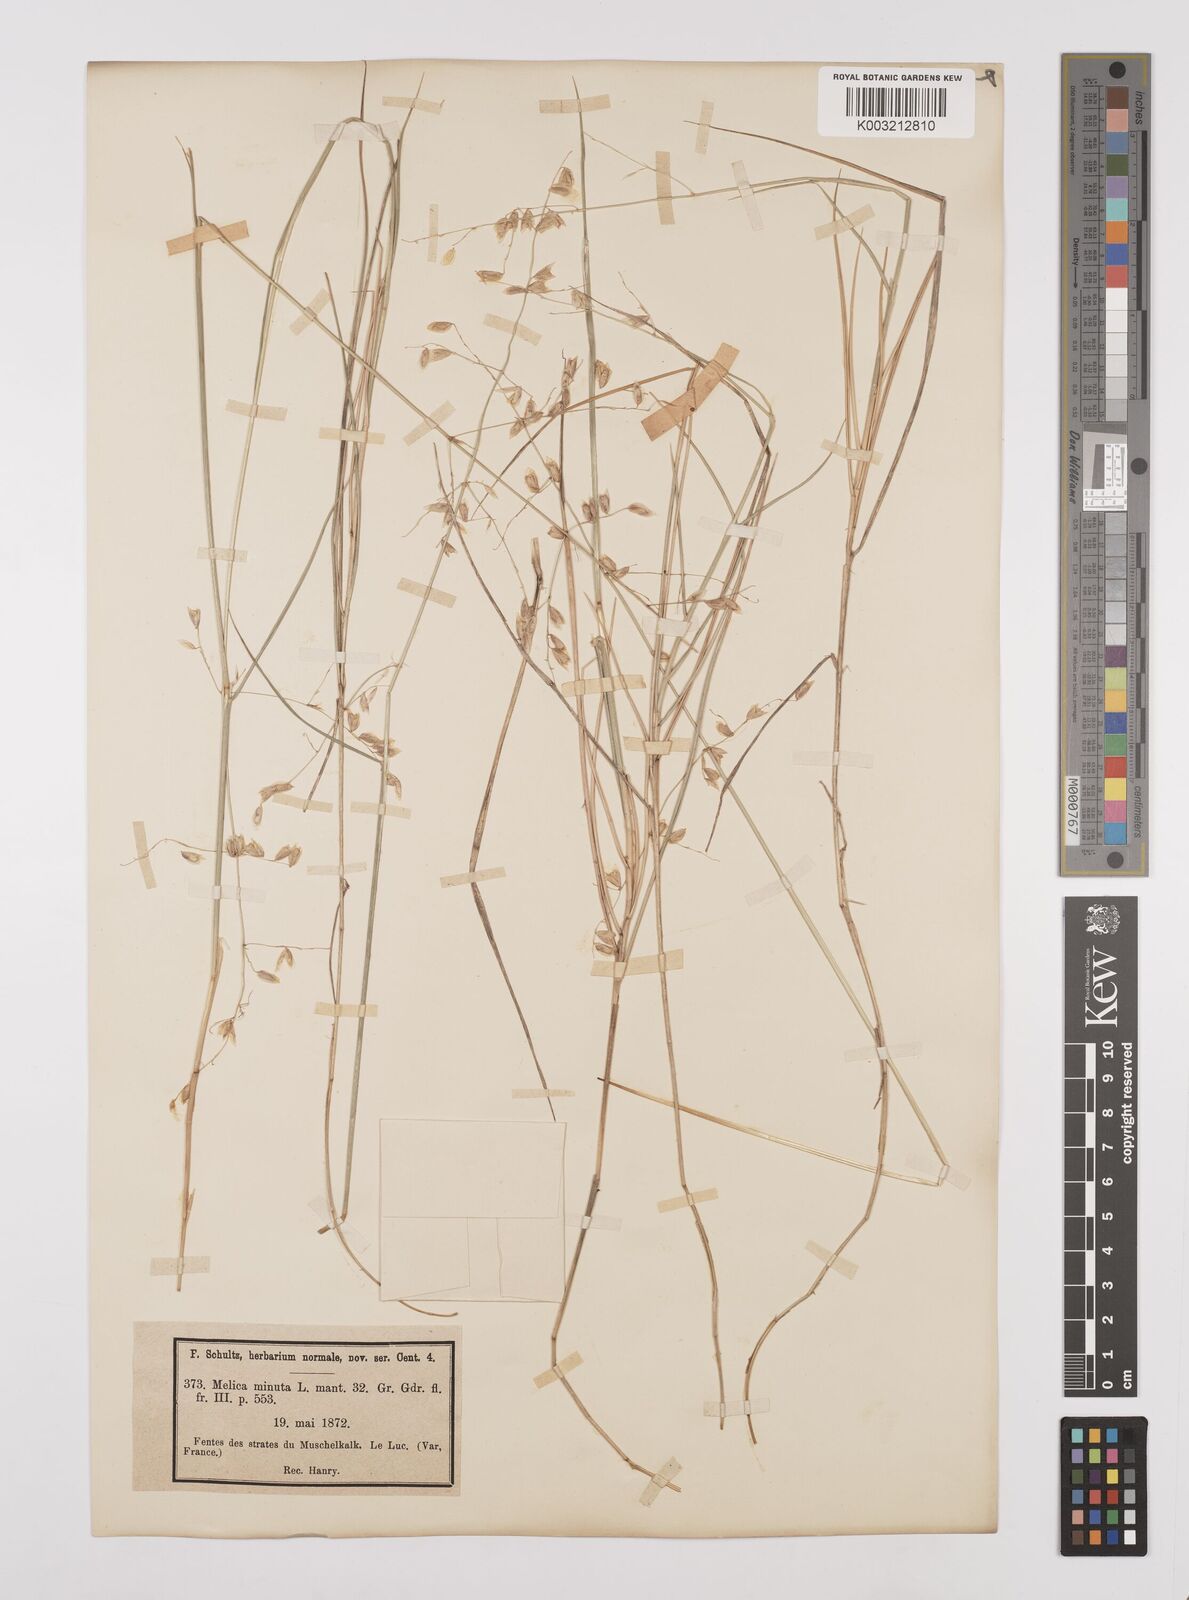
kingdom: Plantae
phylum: Tracheophyta
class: Liliopsida
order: Poales
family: Poaceae
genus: Melica
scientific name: Melica minuta
